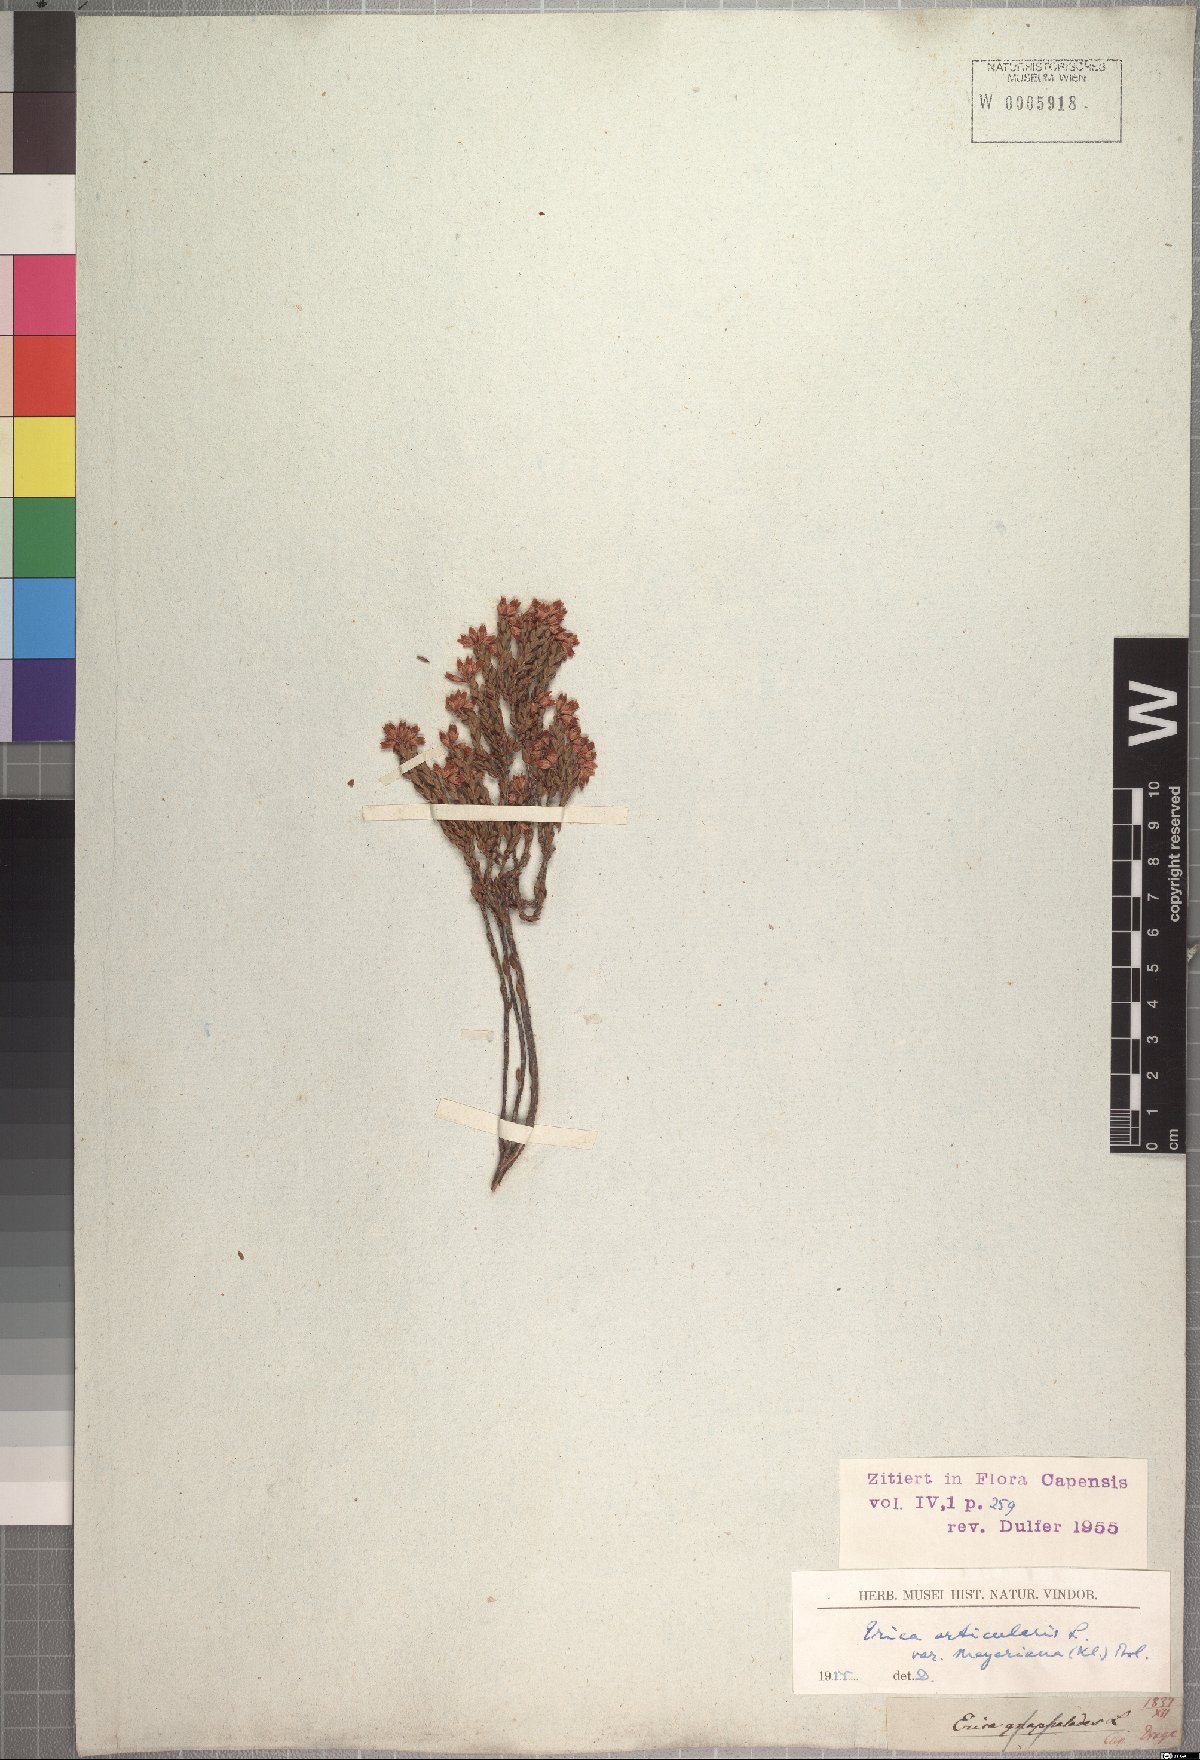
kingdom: Plantae
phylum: Tracheophyta
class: Magnoliopsida
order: Ericales
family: Ericaceae
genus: Erica
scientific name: Erica articularis
